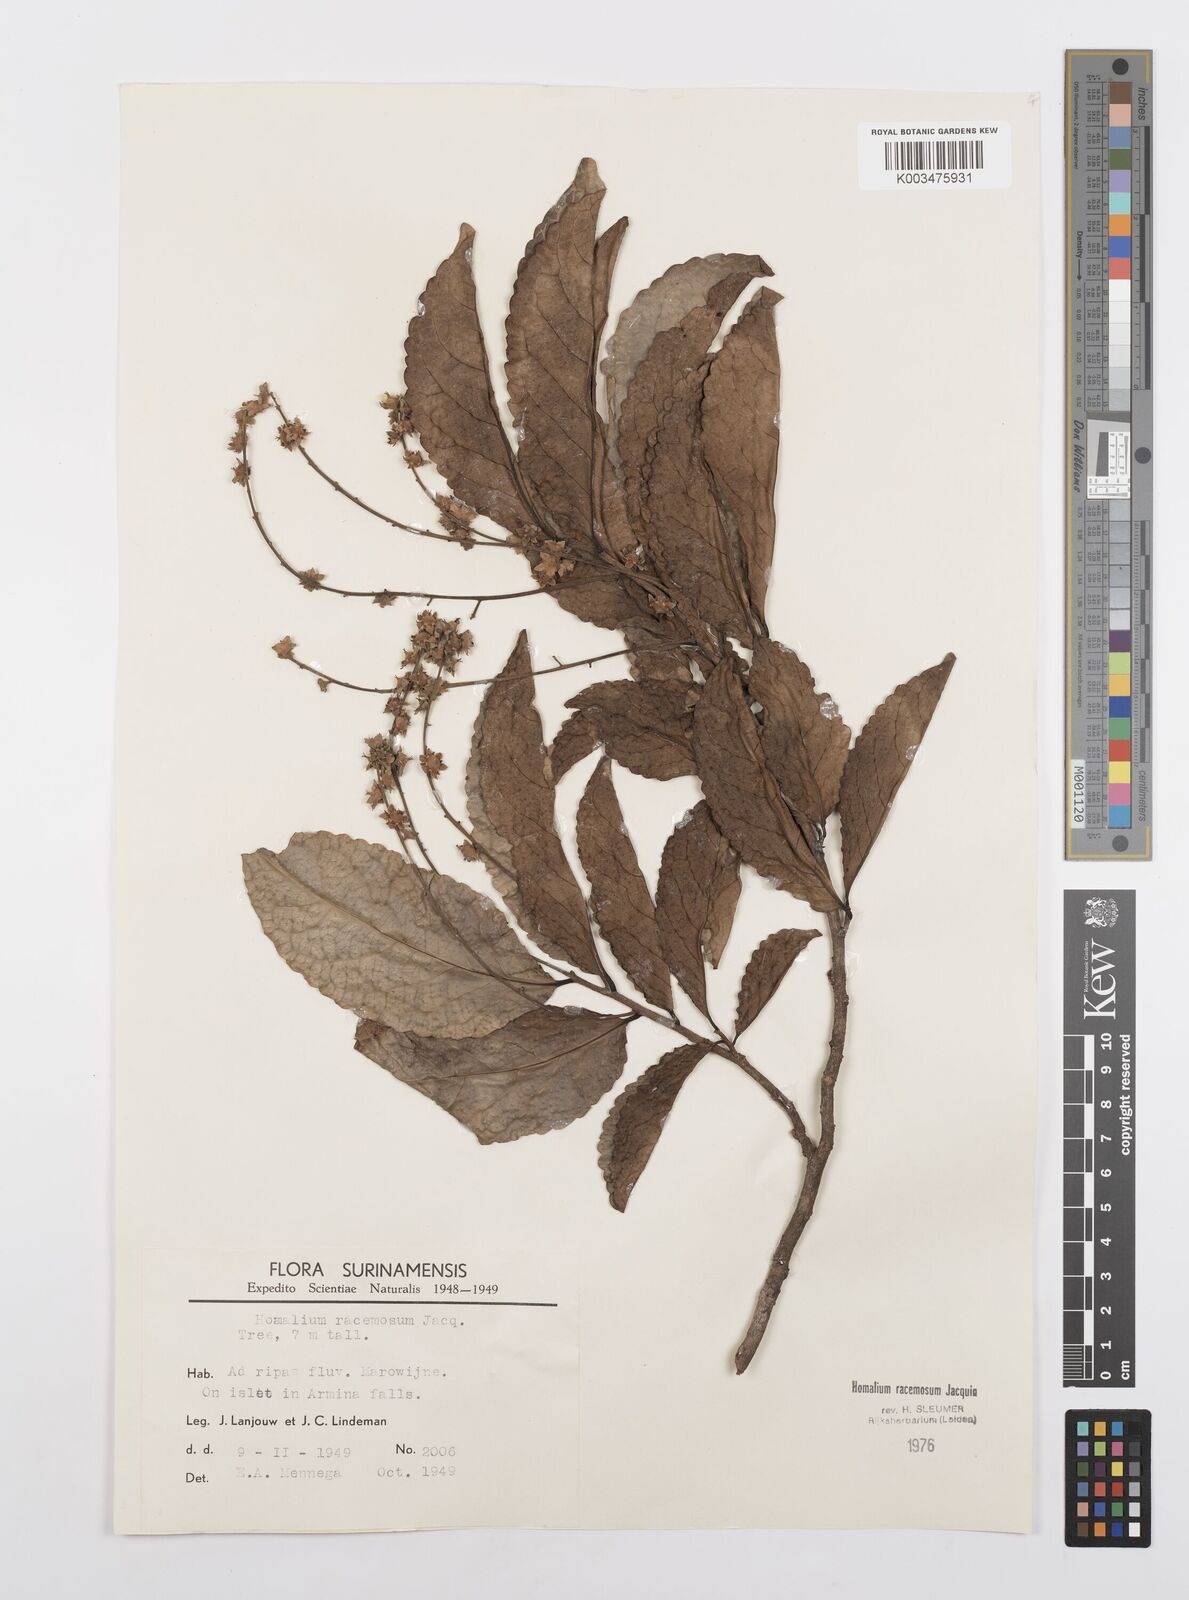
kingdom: Plantae
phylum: Tracheophyta
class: Magnoliopsida
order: Malpighiales
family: Salicaceae
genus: Homalium
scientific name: Homalium racemosum
